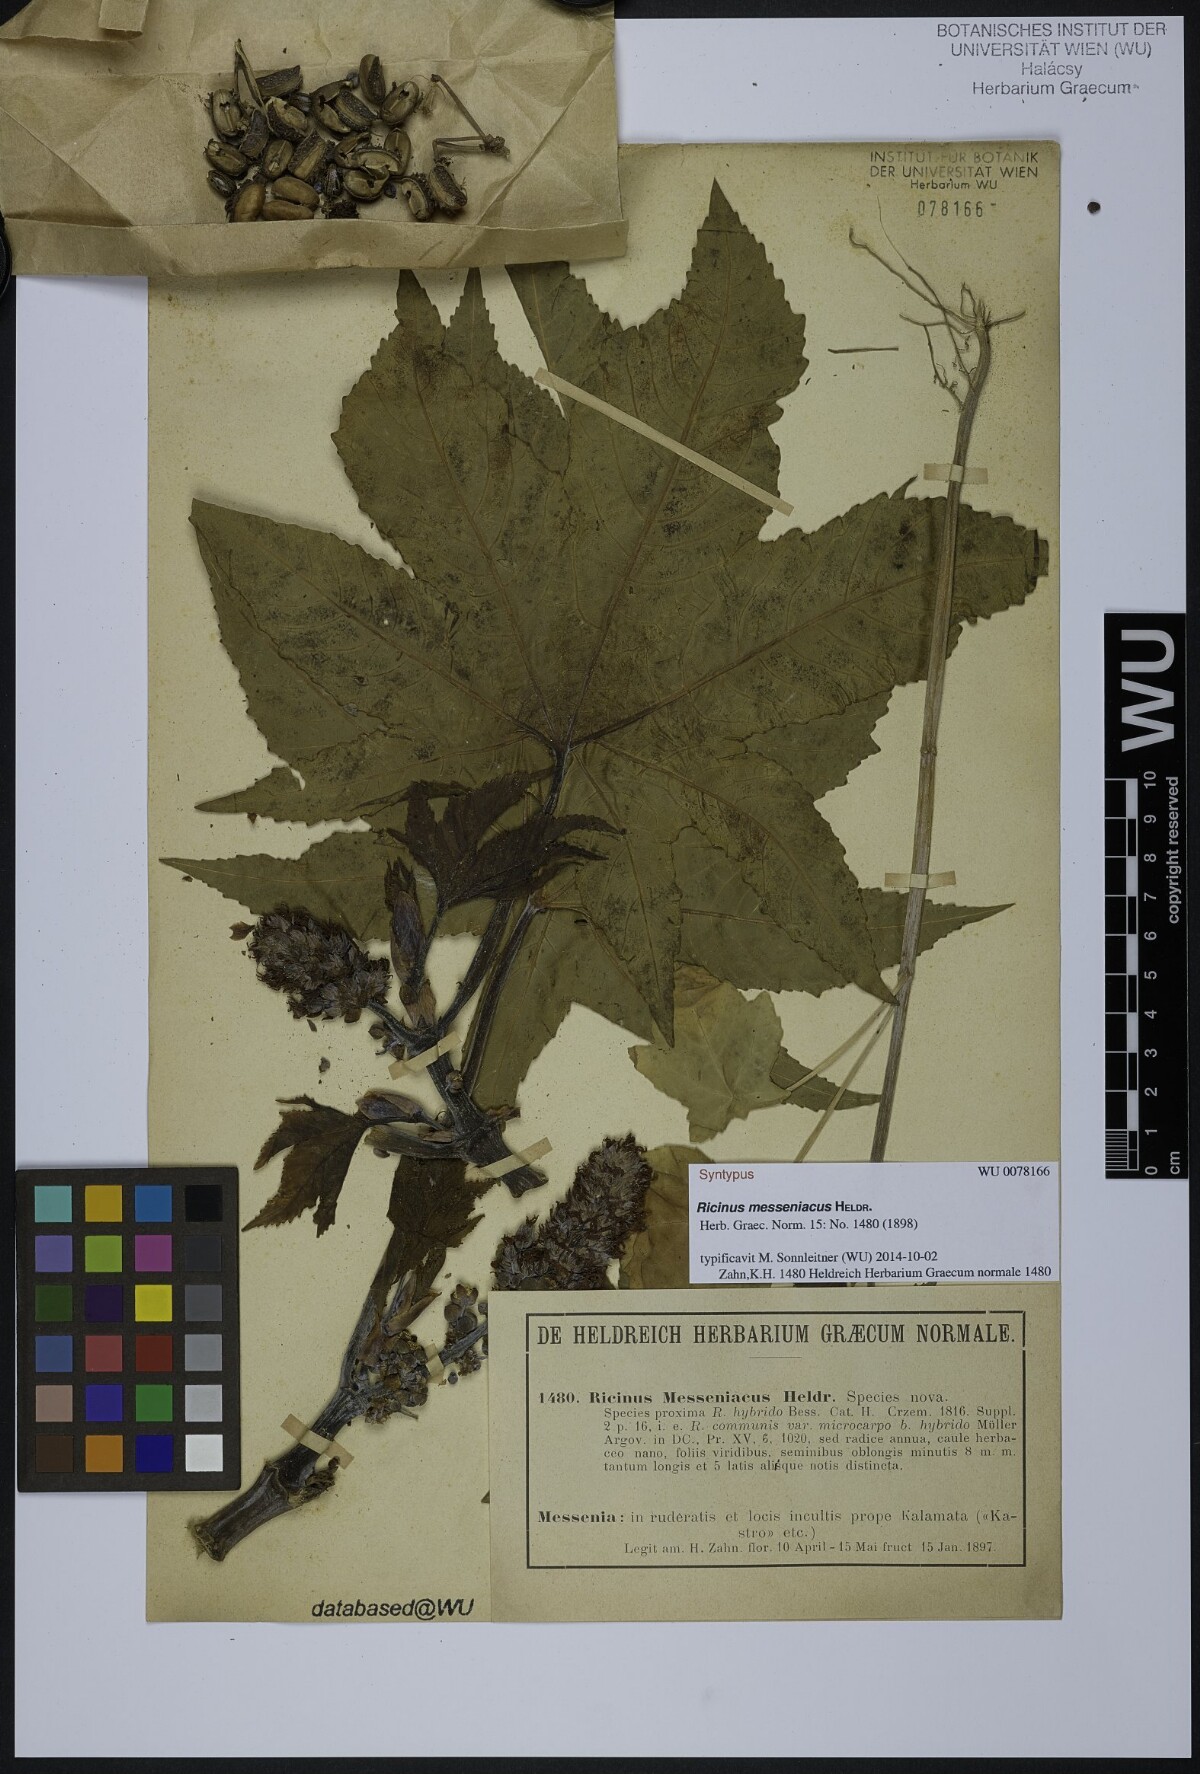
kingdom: Plantae
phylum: Tracheophyta
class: Magnoliopsida
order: Malpighiales
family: Euphorbiaceae
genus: Ricinus
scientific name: Ricinus communis
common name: Castor-oil-plant
